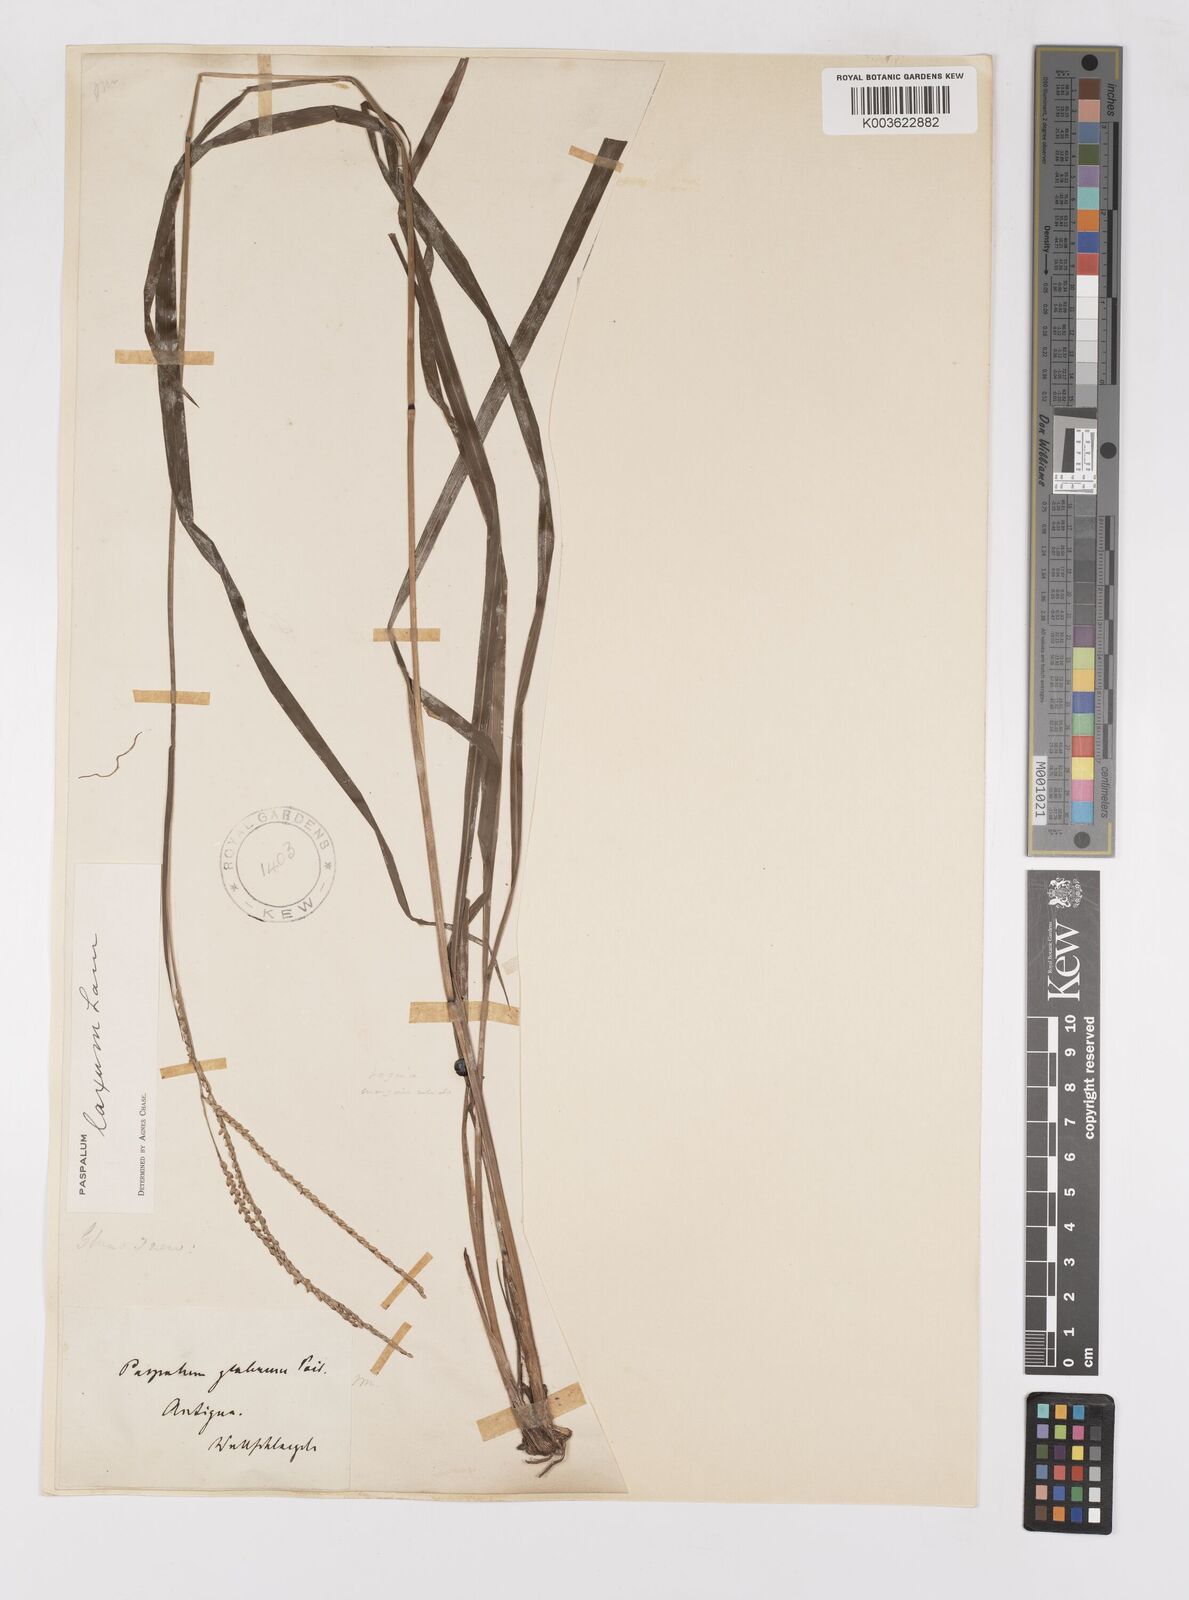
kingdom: Plantae
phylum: Tracheophyta
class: Liliopsida
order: Poales
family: Poaceae
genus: Paspalum
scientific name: Paspalum laxum
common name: Coconut paspalum
